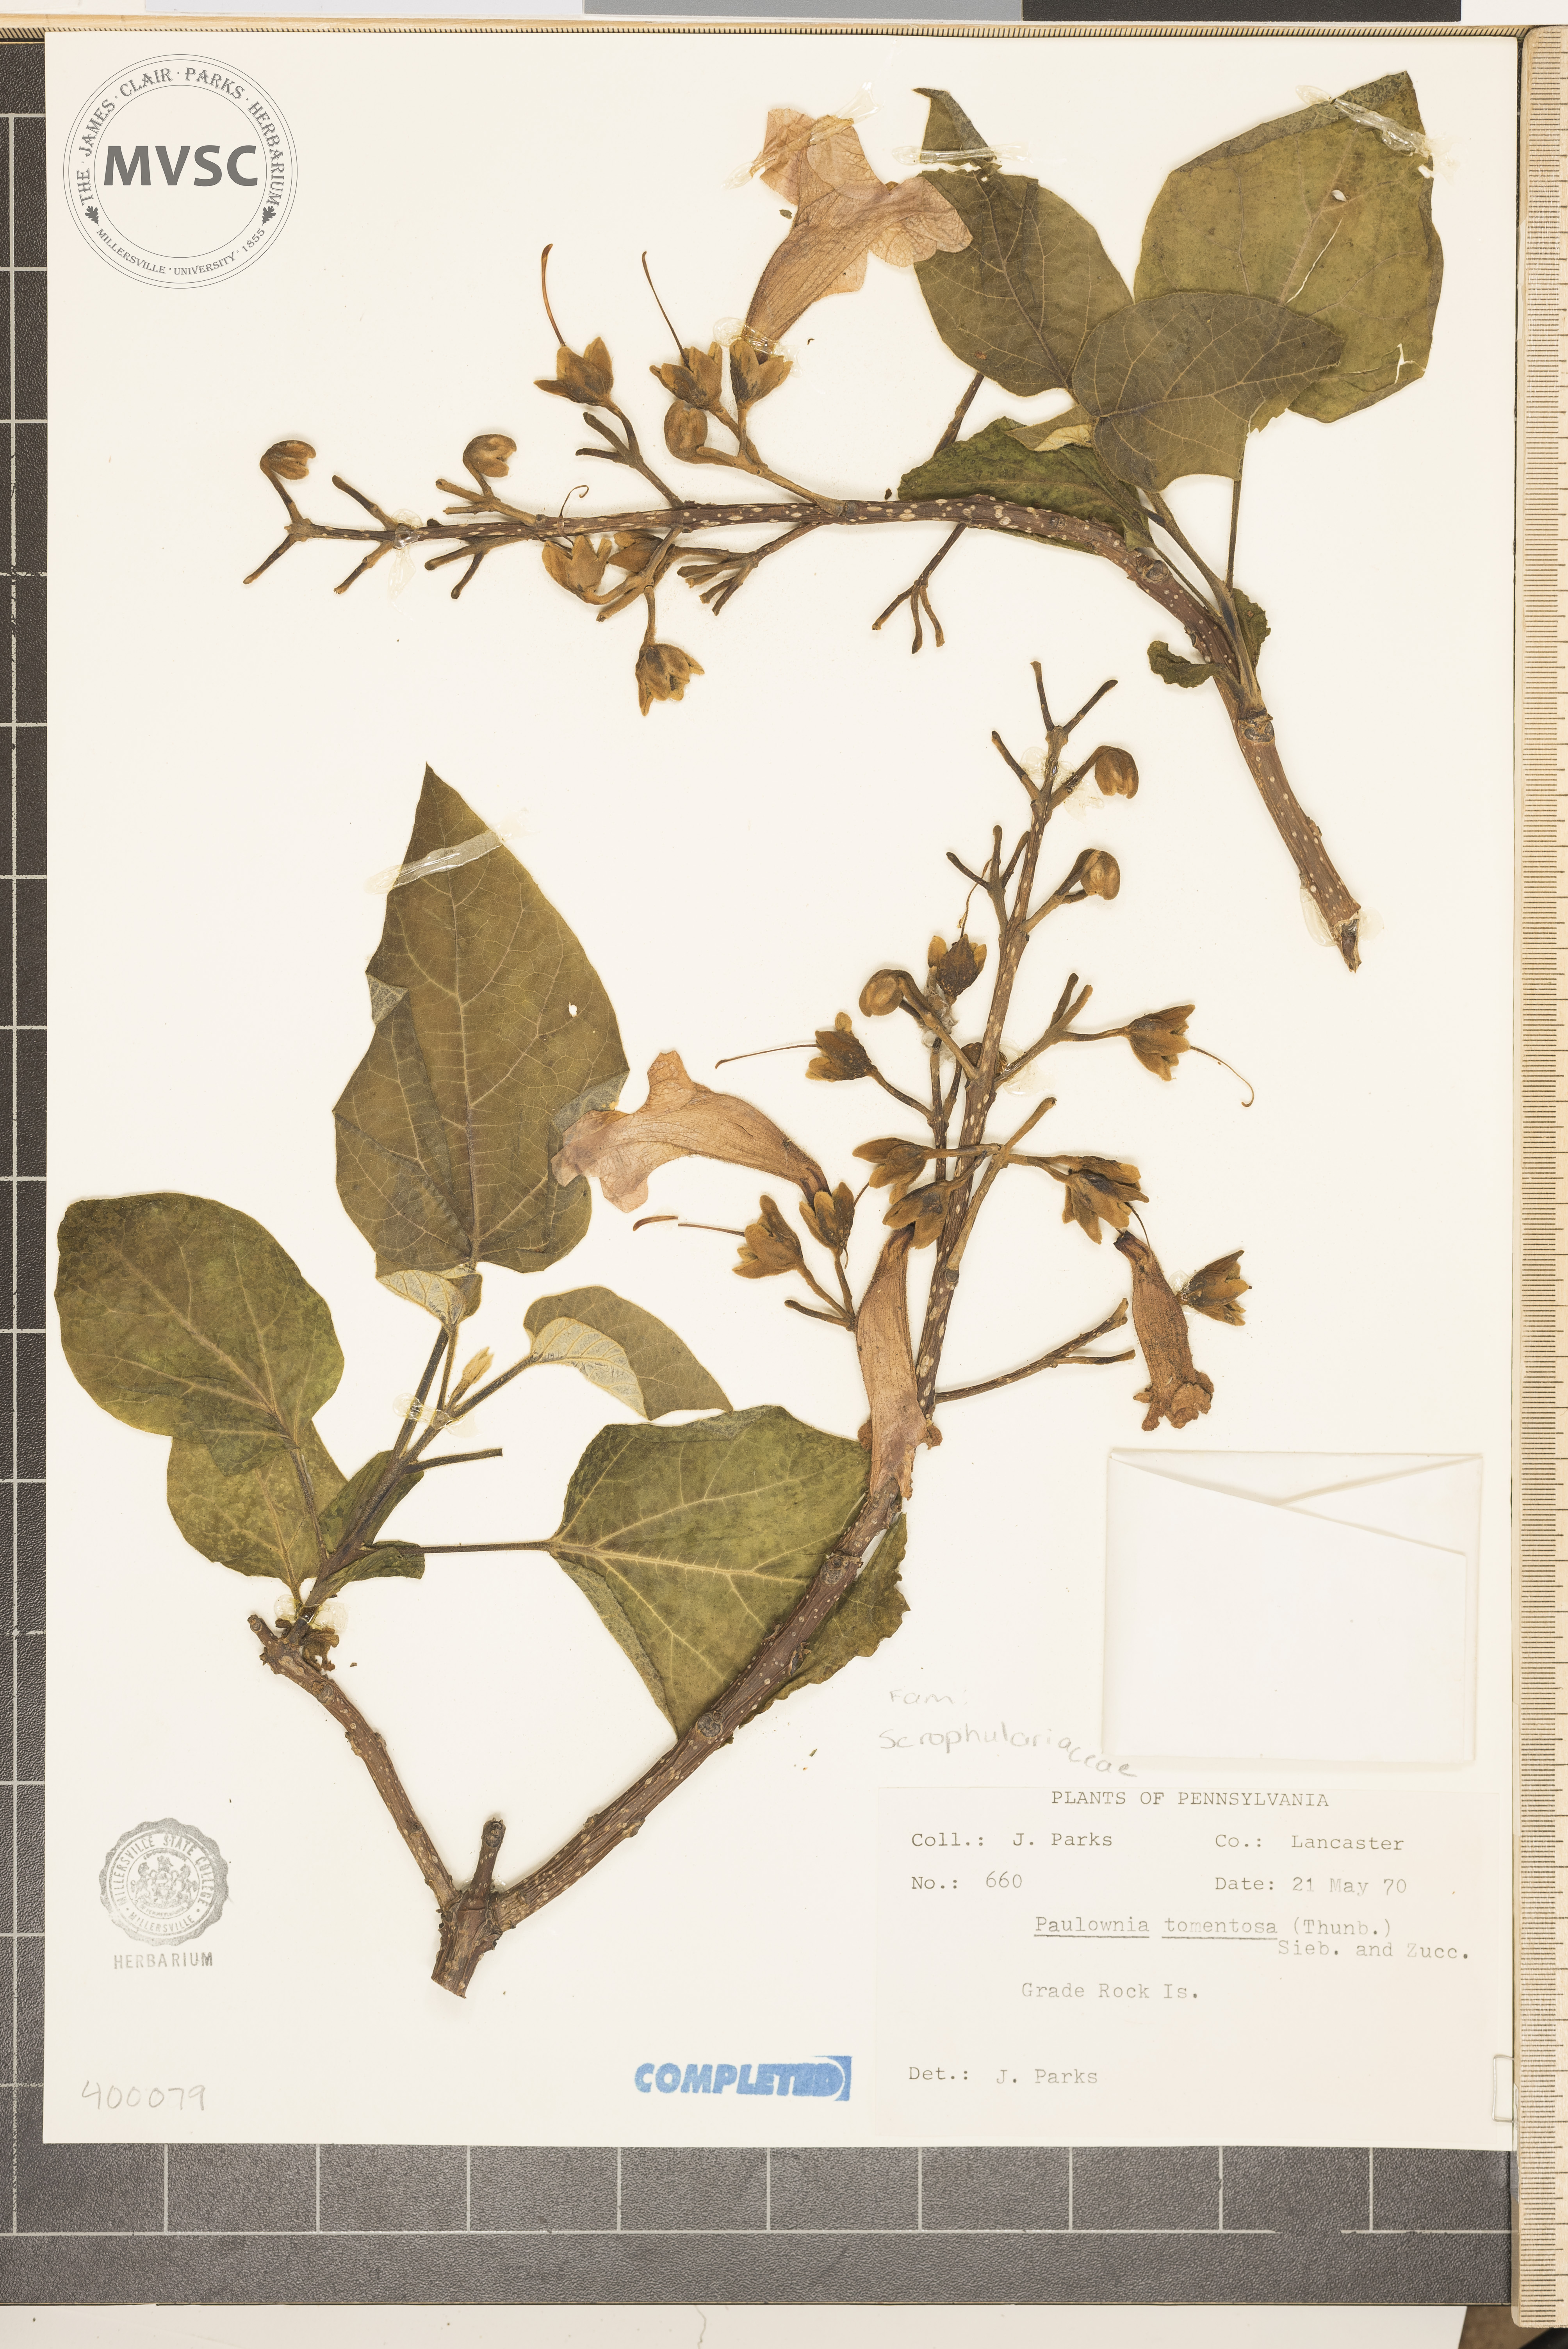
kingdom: Plantae
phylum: Tracheophyta
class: Magnoliopsida
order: Lamiales
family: Paulowniaceae
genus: Paulownia
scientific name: Paulownia tomentosa
